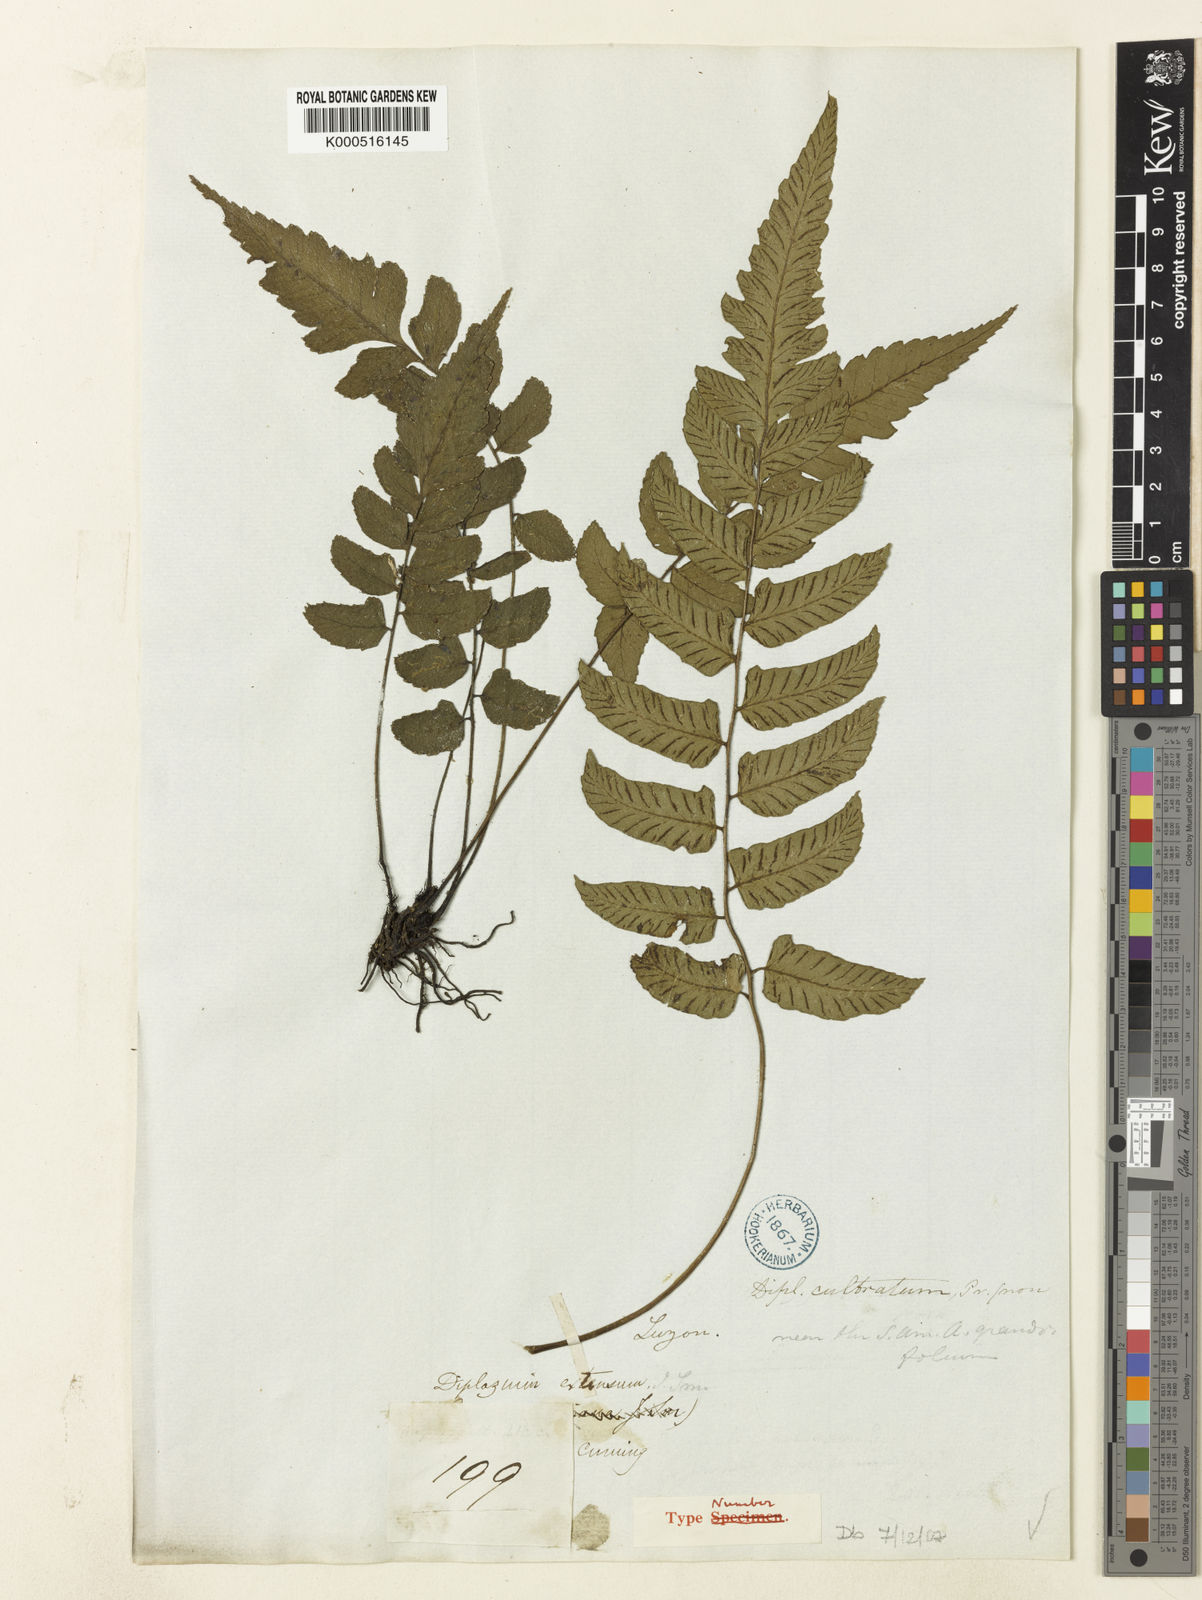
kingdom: Plantae
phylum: Tracheophyta
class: Polypodiopsida
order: Polypodiales
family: Athyriaceae
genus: Diplazium
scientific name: Diplazium cultratum
